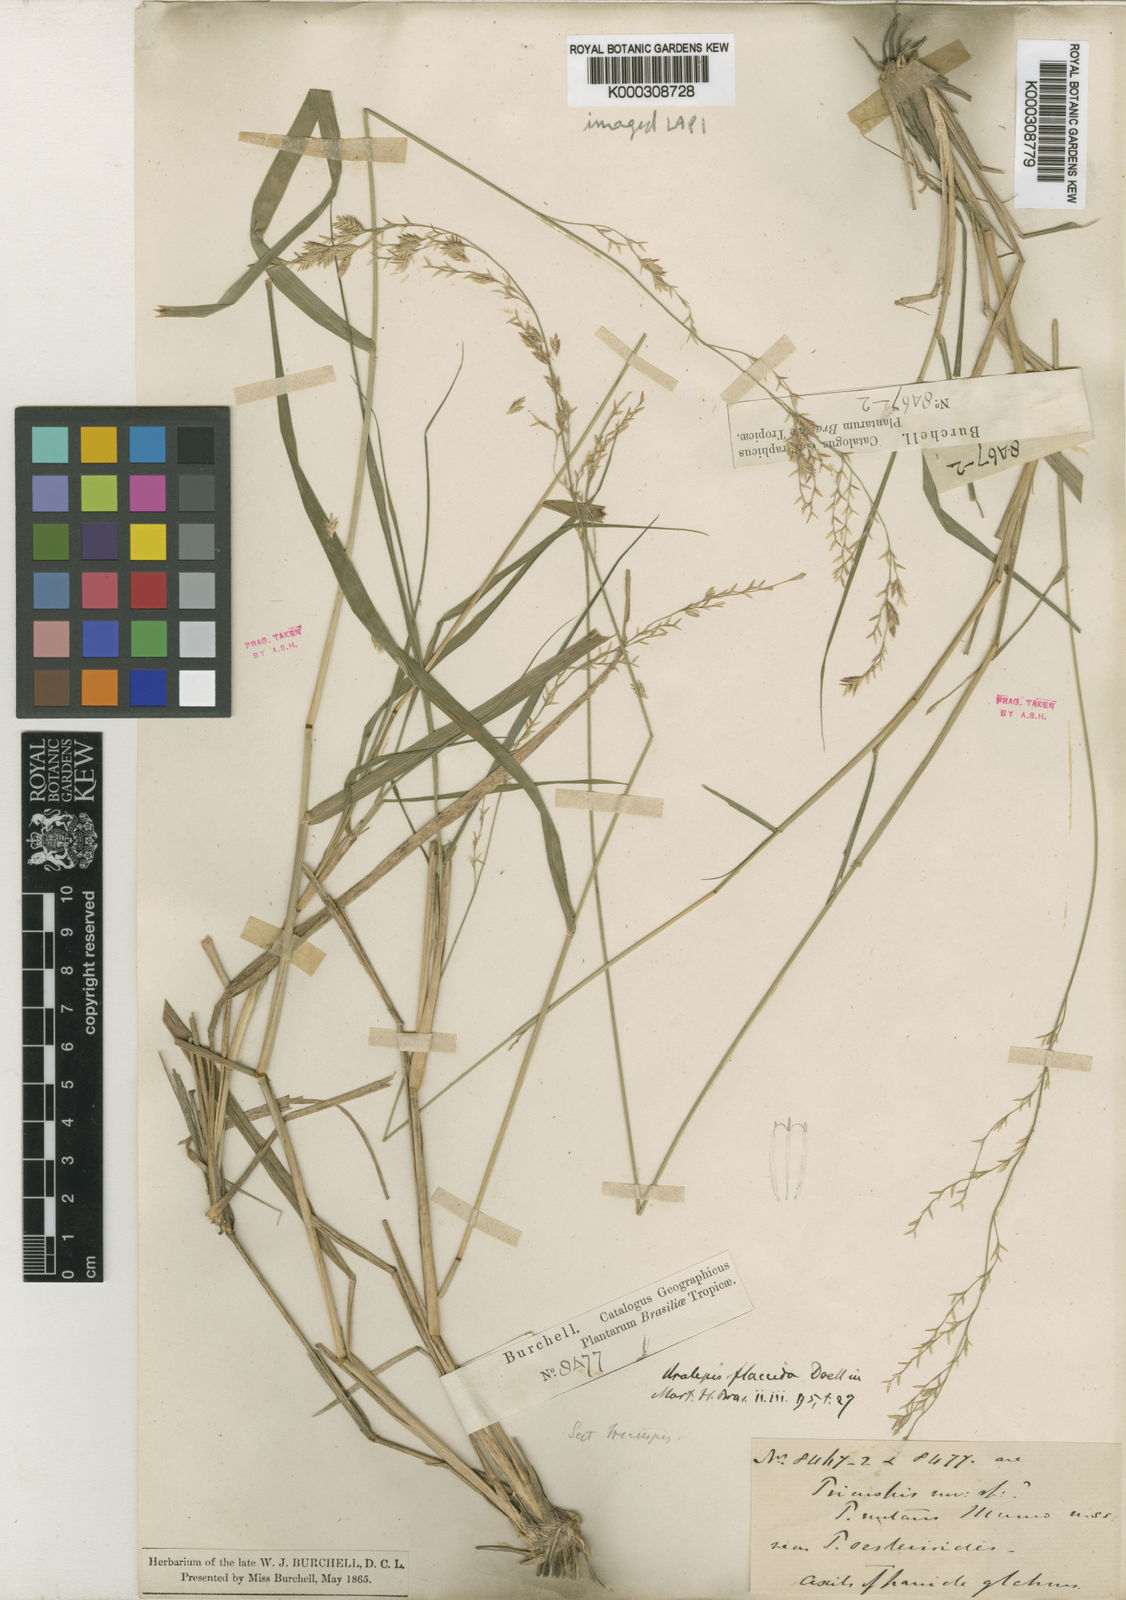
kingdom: Plantae
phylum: Tracheophyta
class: Liliopsida
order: Poales
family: Poaceae
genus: Tridens
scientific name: Tridens flaccidus
